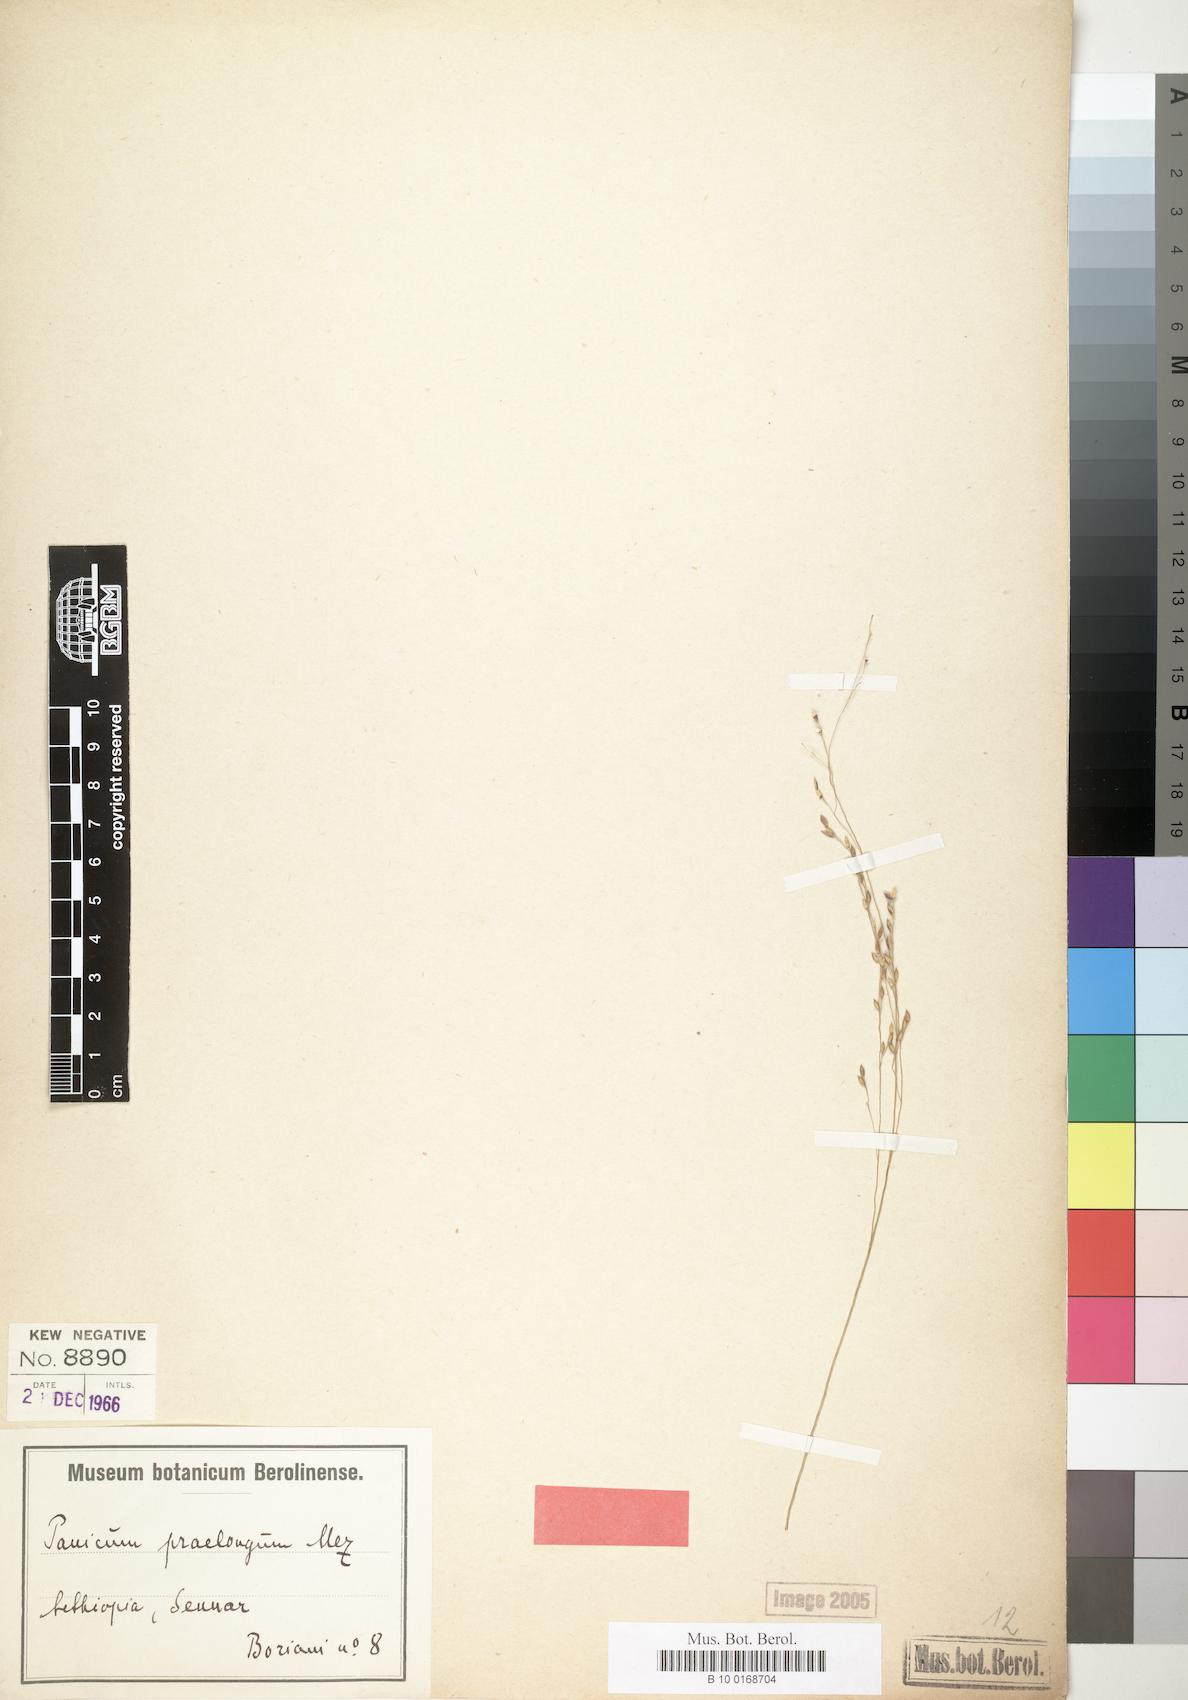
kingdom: Plantae
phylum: Tracheophyta
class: Liliopsida
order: Poales
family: Poaceae
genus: Panicum
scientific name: Panicum porphyrrhizos
